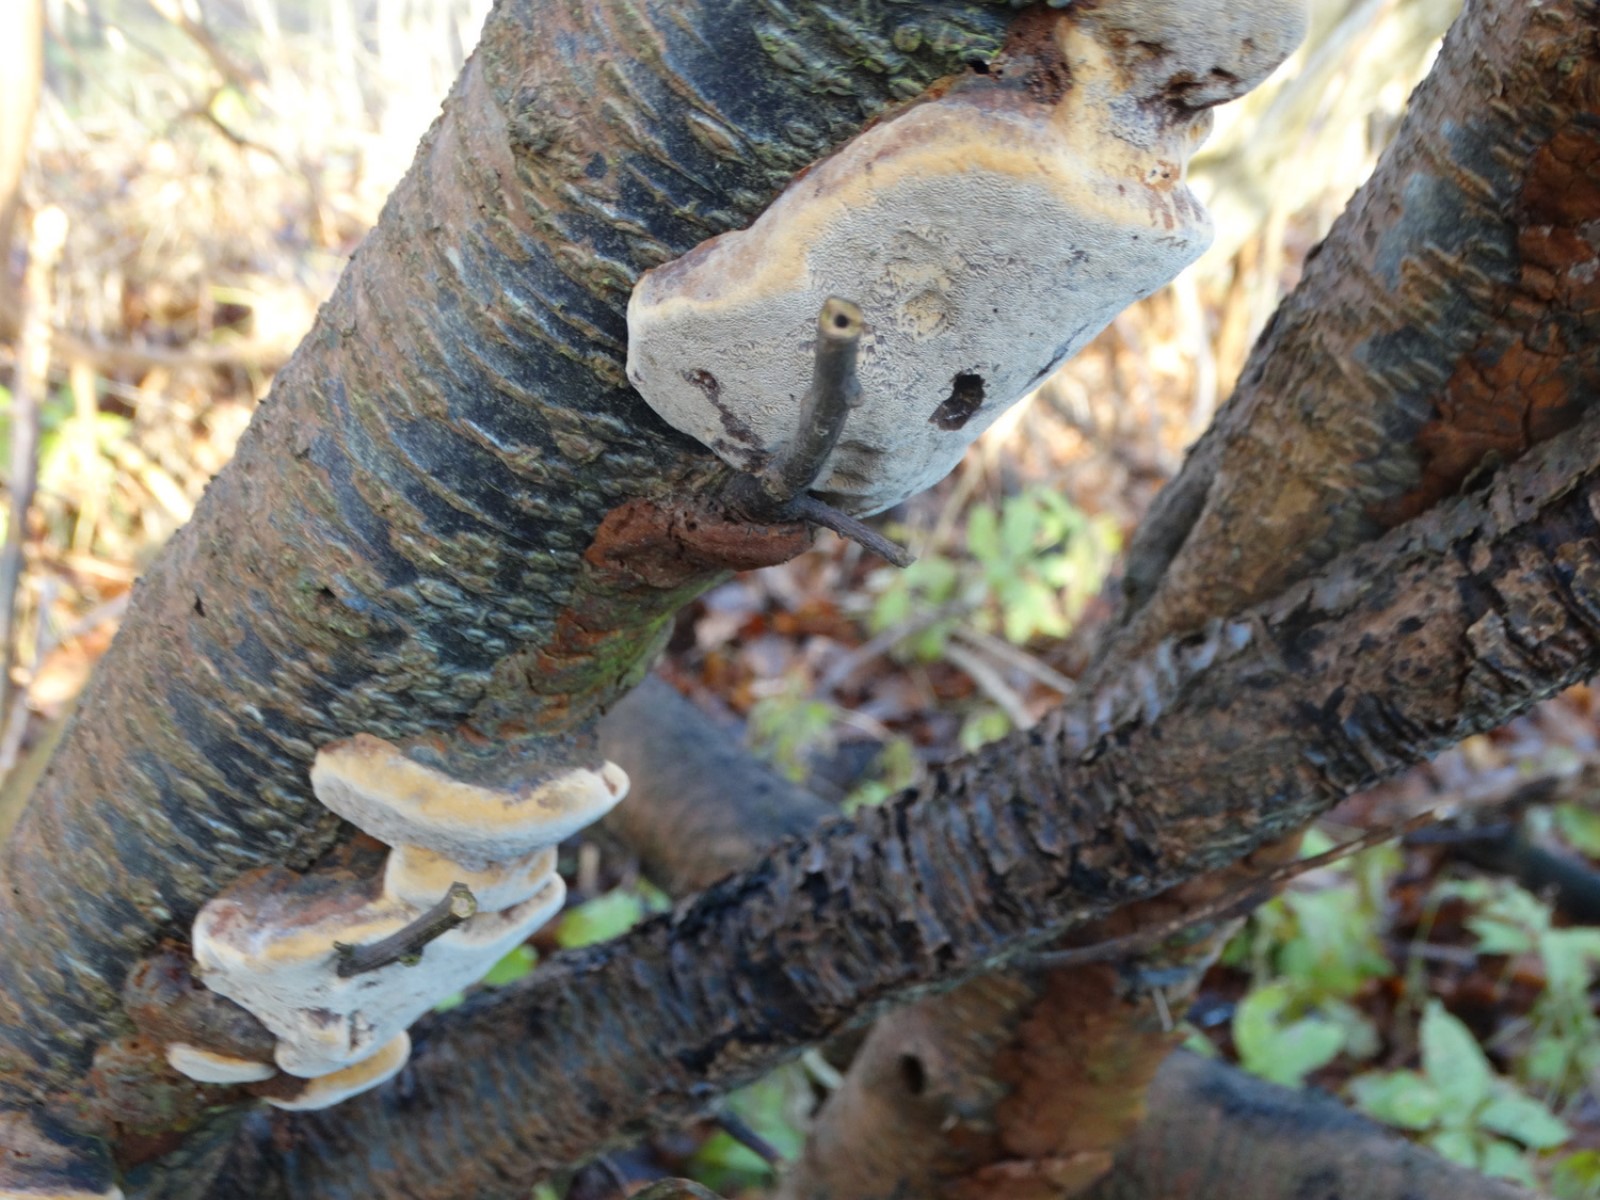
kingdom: Fungi
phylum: Basidiomycota
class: Agaricomycetes
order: Hymenochaetales
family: Hymenochaetaceae
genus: Phellinus
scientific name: Phellinus pomaceus
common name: blomme-ildporesvamp
